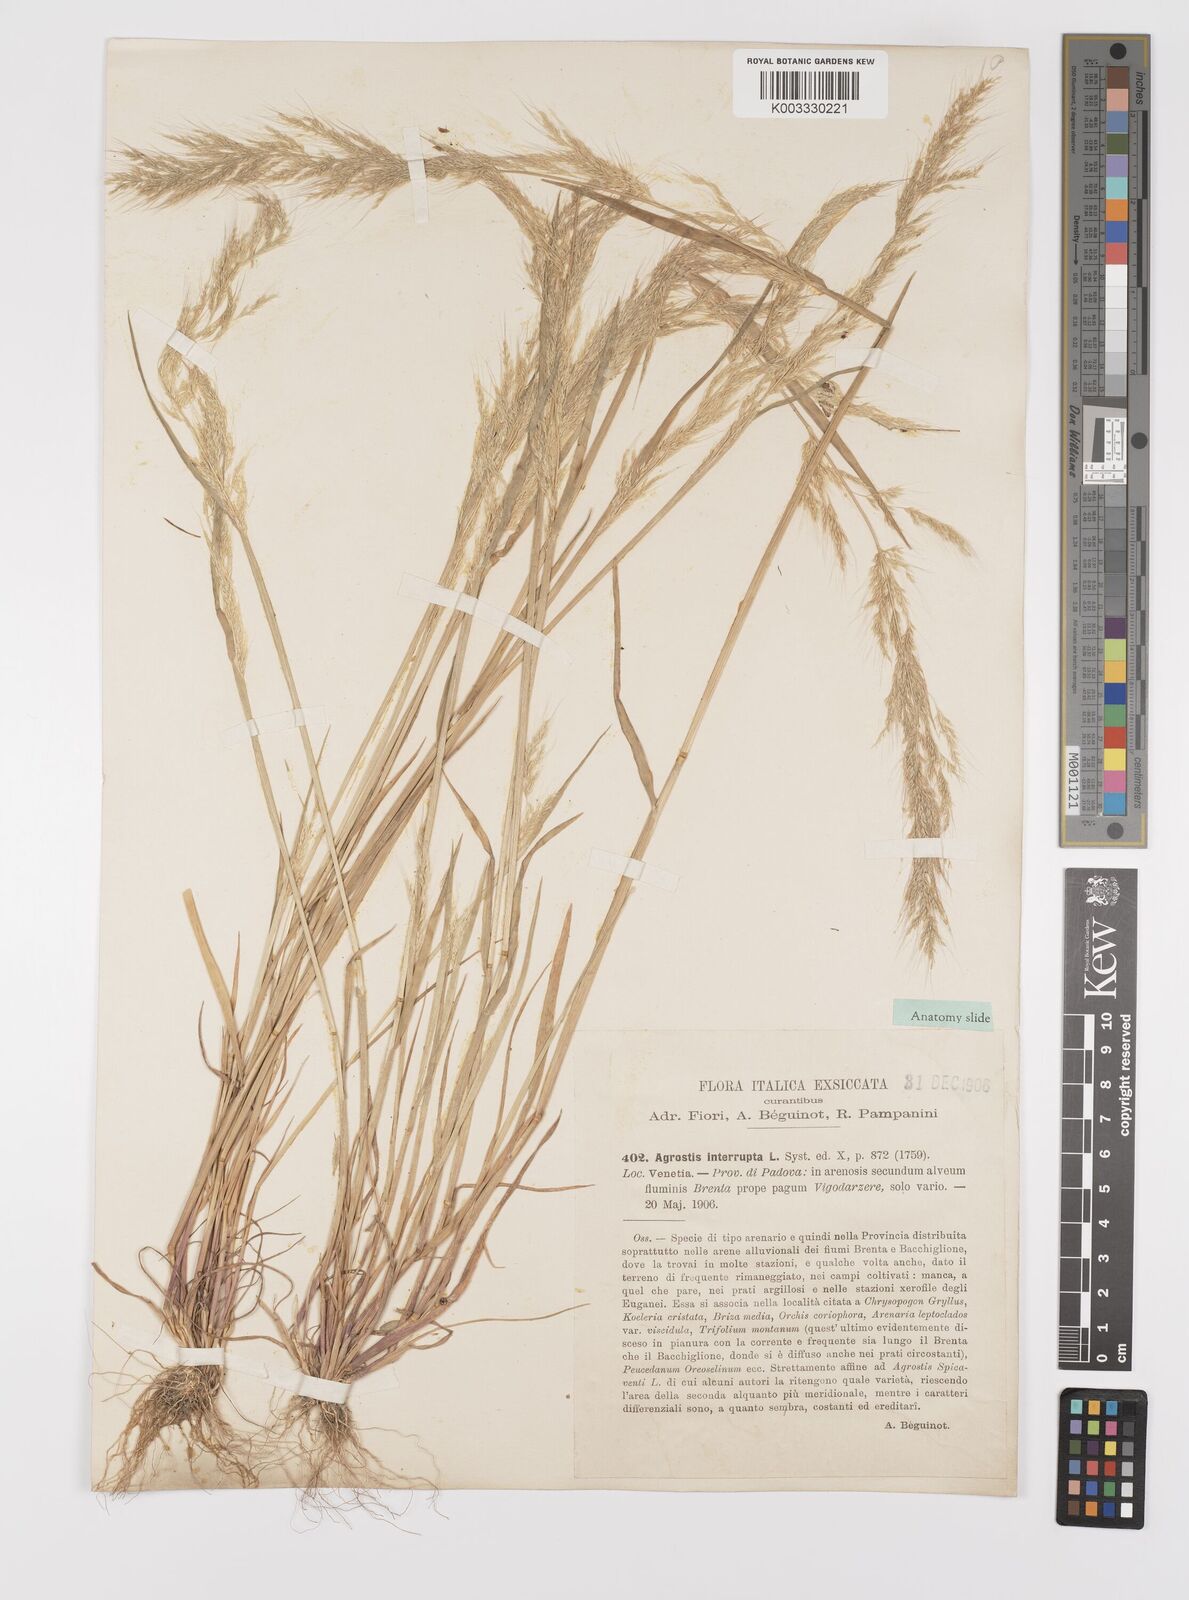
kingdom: Plantae
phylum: Tracheophyta
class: Liliopsida
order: Poales
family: Poaceae
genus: Apera
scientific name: Apera interrupta
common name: Dense silky-bent
